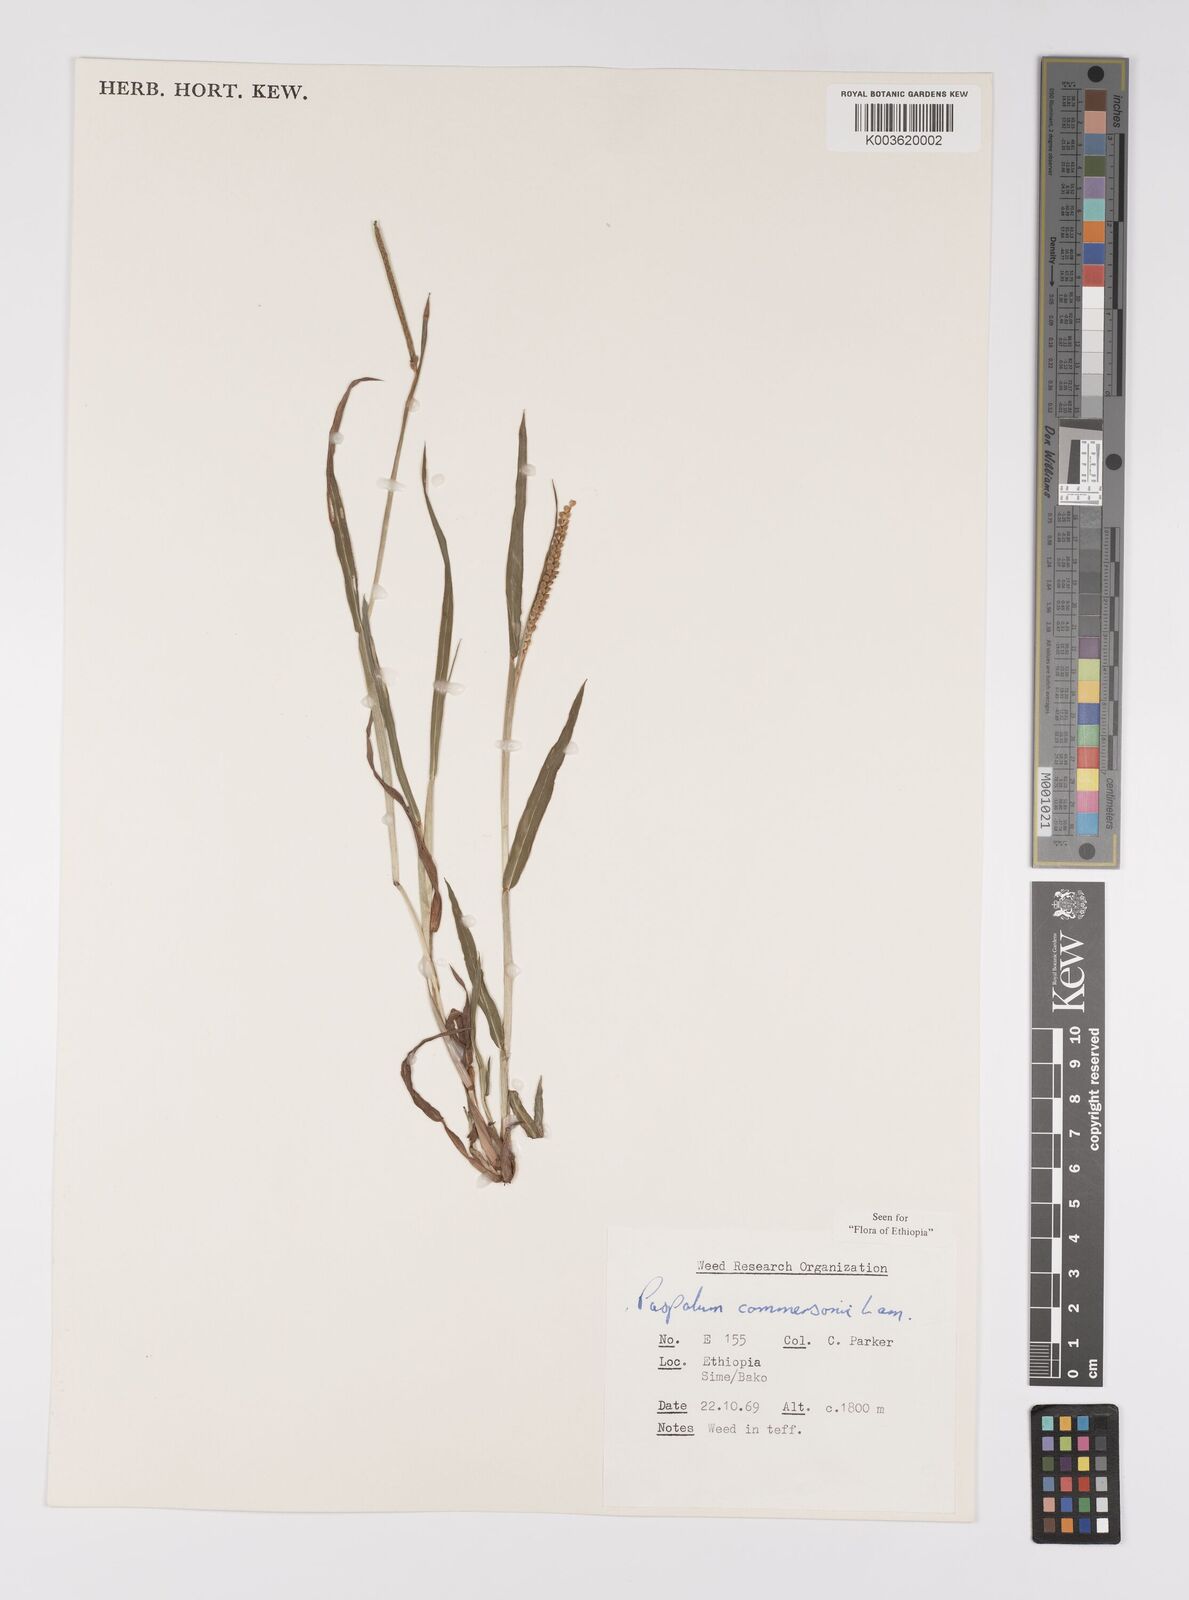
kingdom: Plantae
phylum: Tracheophyta
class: Liliopsida
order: Poales
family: Poaceae
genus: Paspalum
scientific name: Paspalum scrobiculatum
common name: Kodo millet
